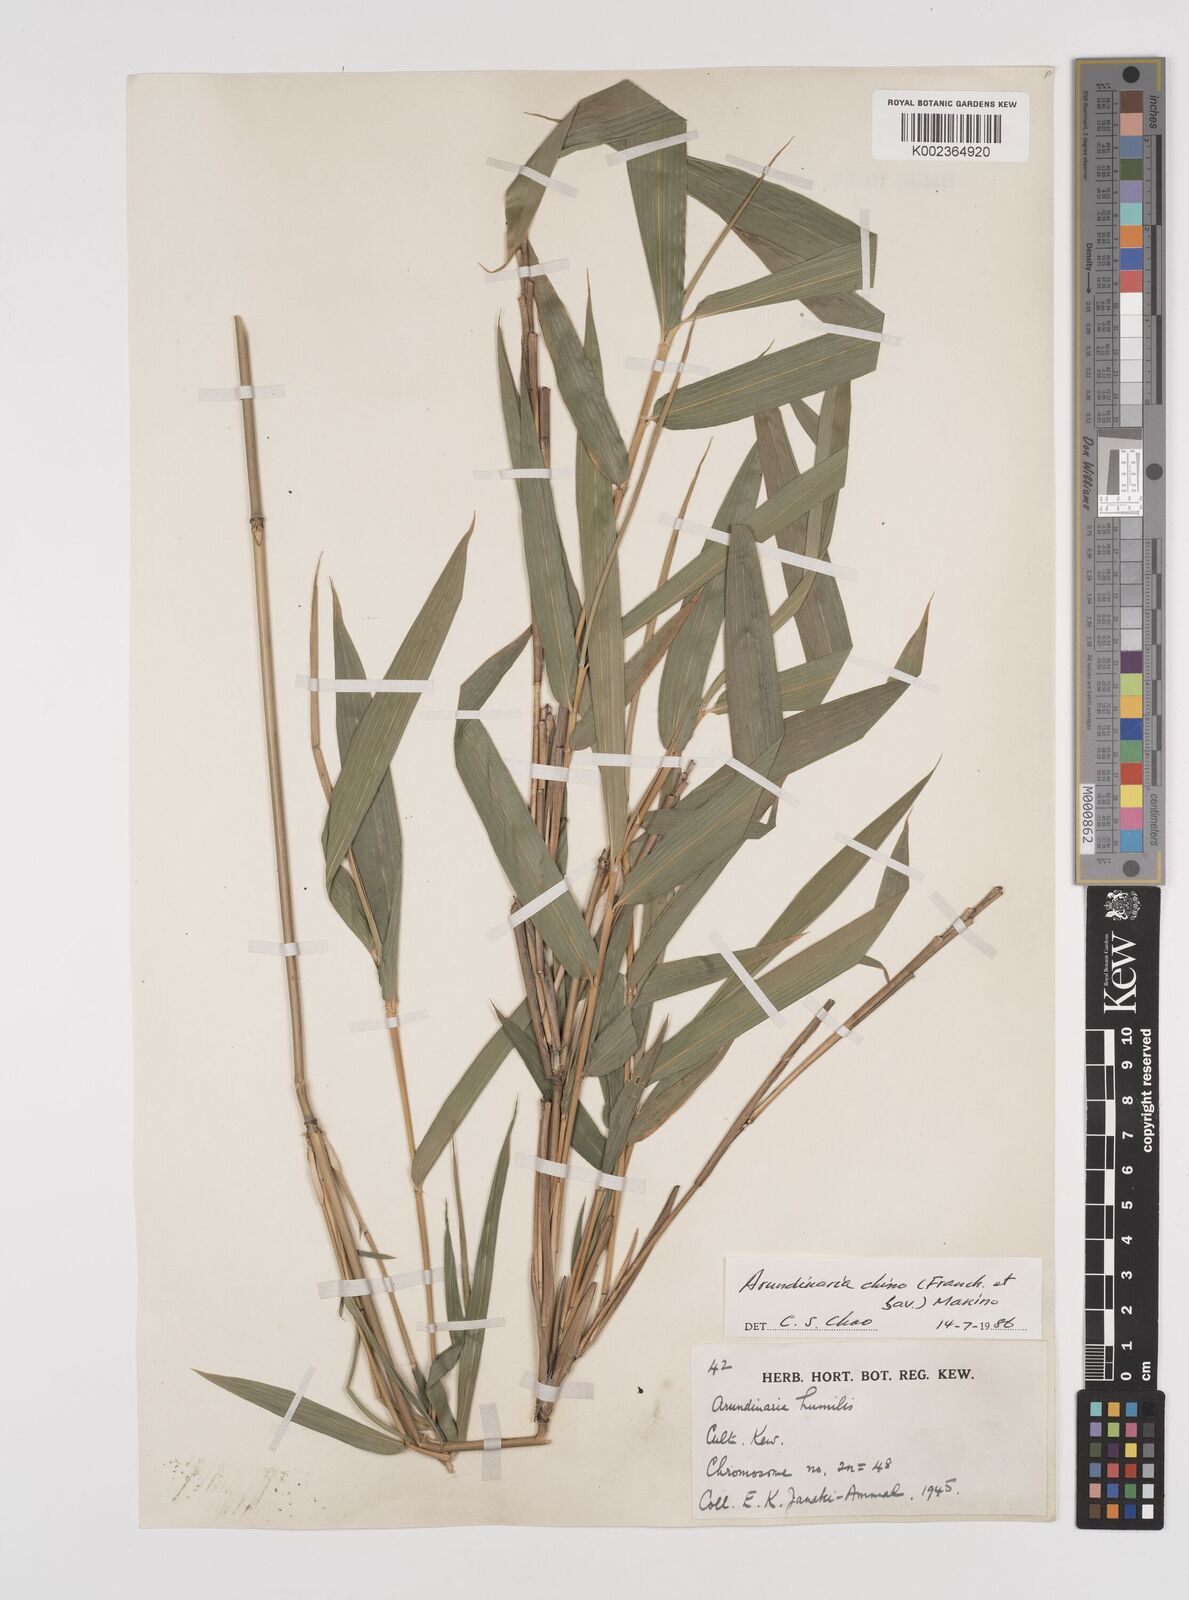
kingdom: Plantae
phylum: Tracheophyta
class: Liliopsida
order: Poales
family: Poaceae
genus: Pleioblastus
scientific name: Pleioblastus argenteostriatus
